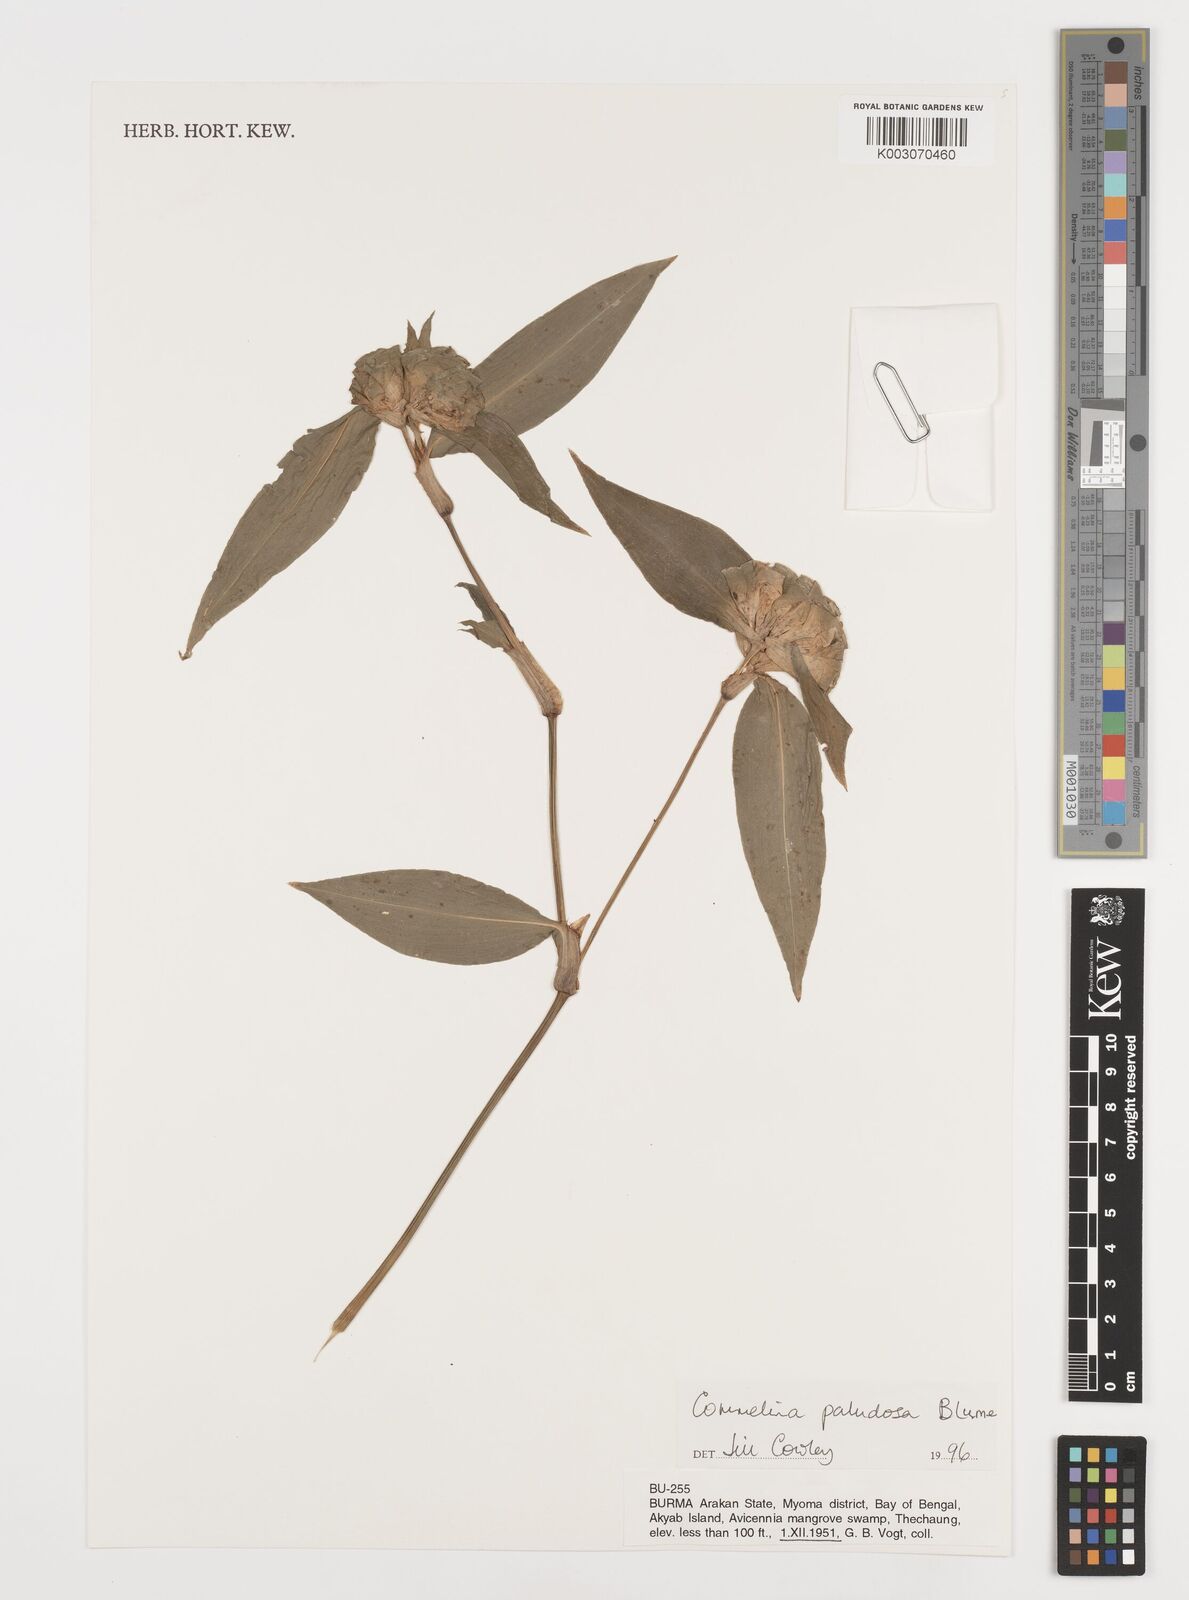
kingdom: Plantae
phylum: Tracheophyta
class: Liliopsida
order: Commelinales
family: Commelinaceae
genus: Commelina
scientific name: Commelina paludosa
